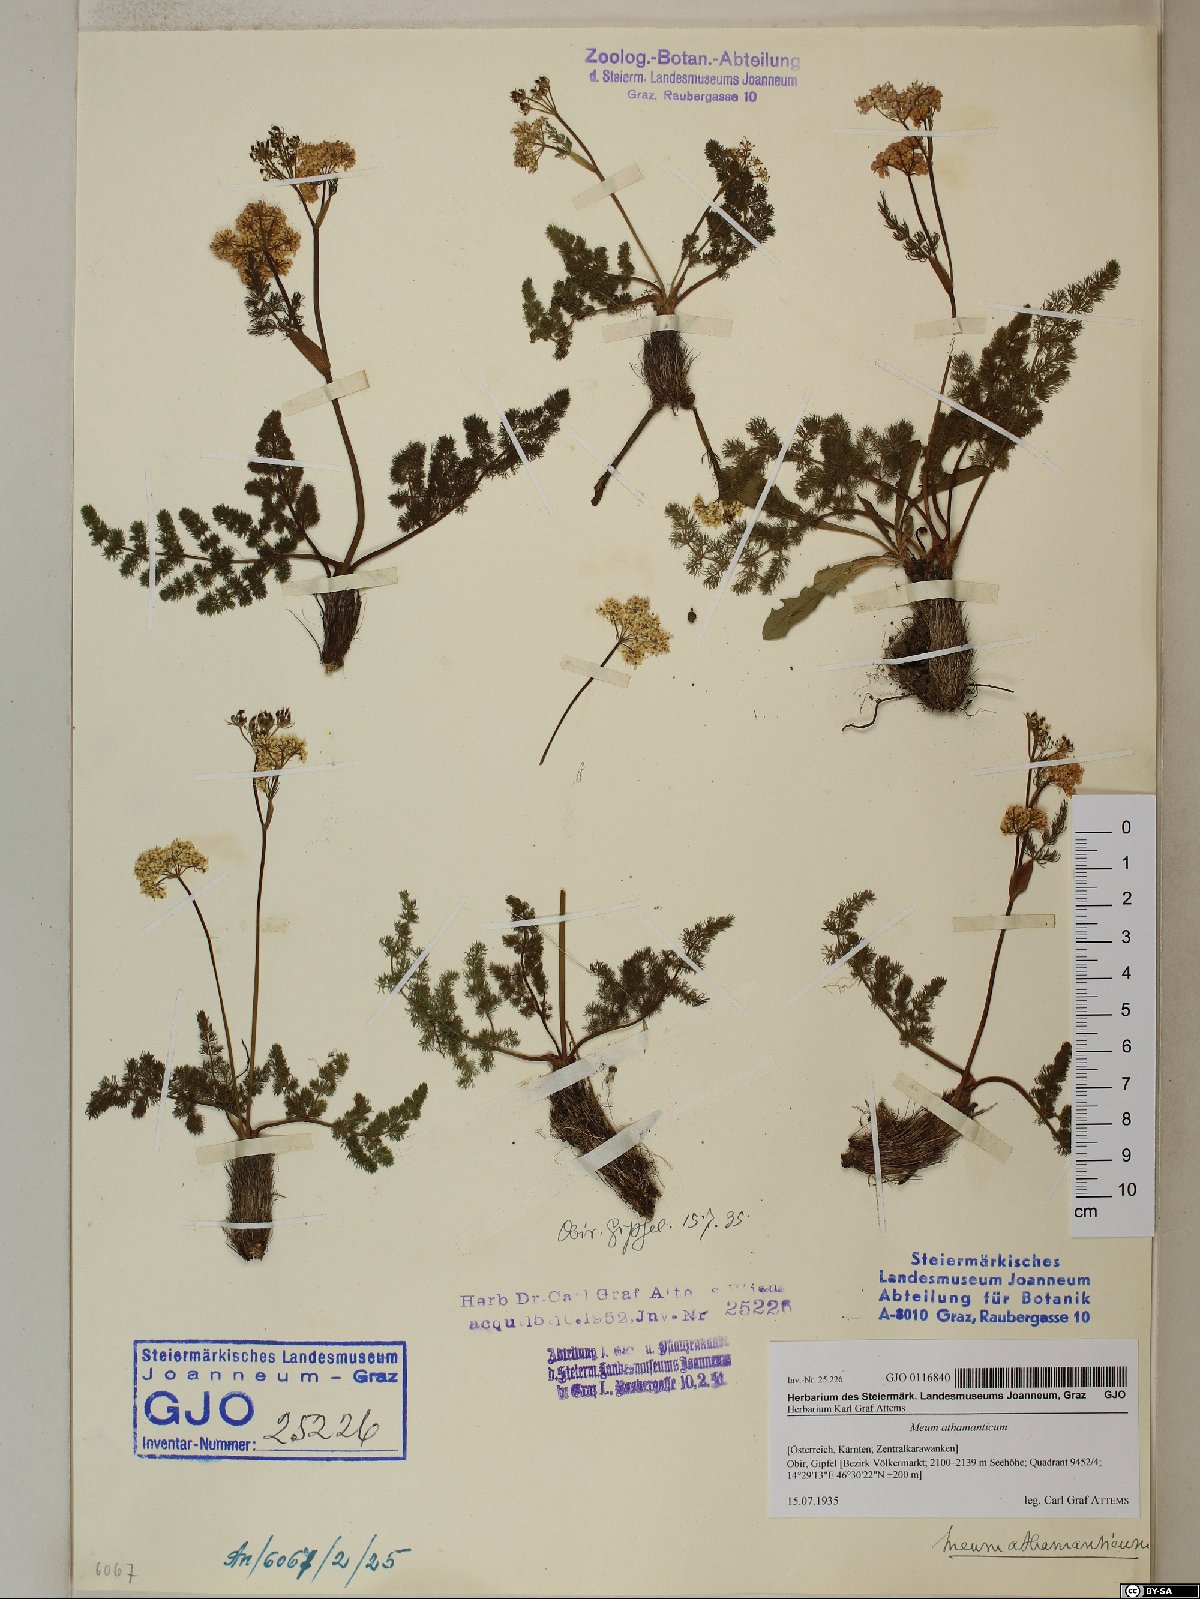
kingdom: Plantae
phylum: Tracheophyta
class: Magnoliopsida
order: Apiales
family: Apiaceae
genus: Meum
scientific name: Meum athamanticum
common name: Spignel
